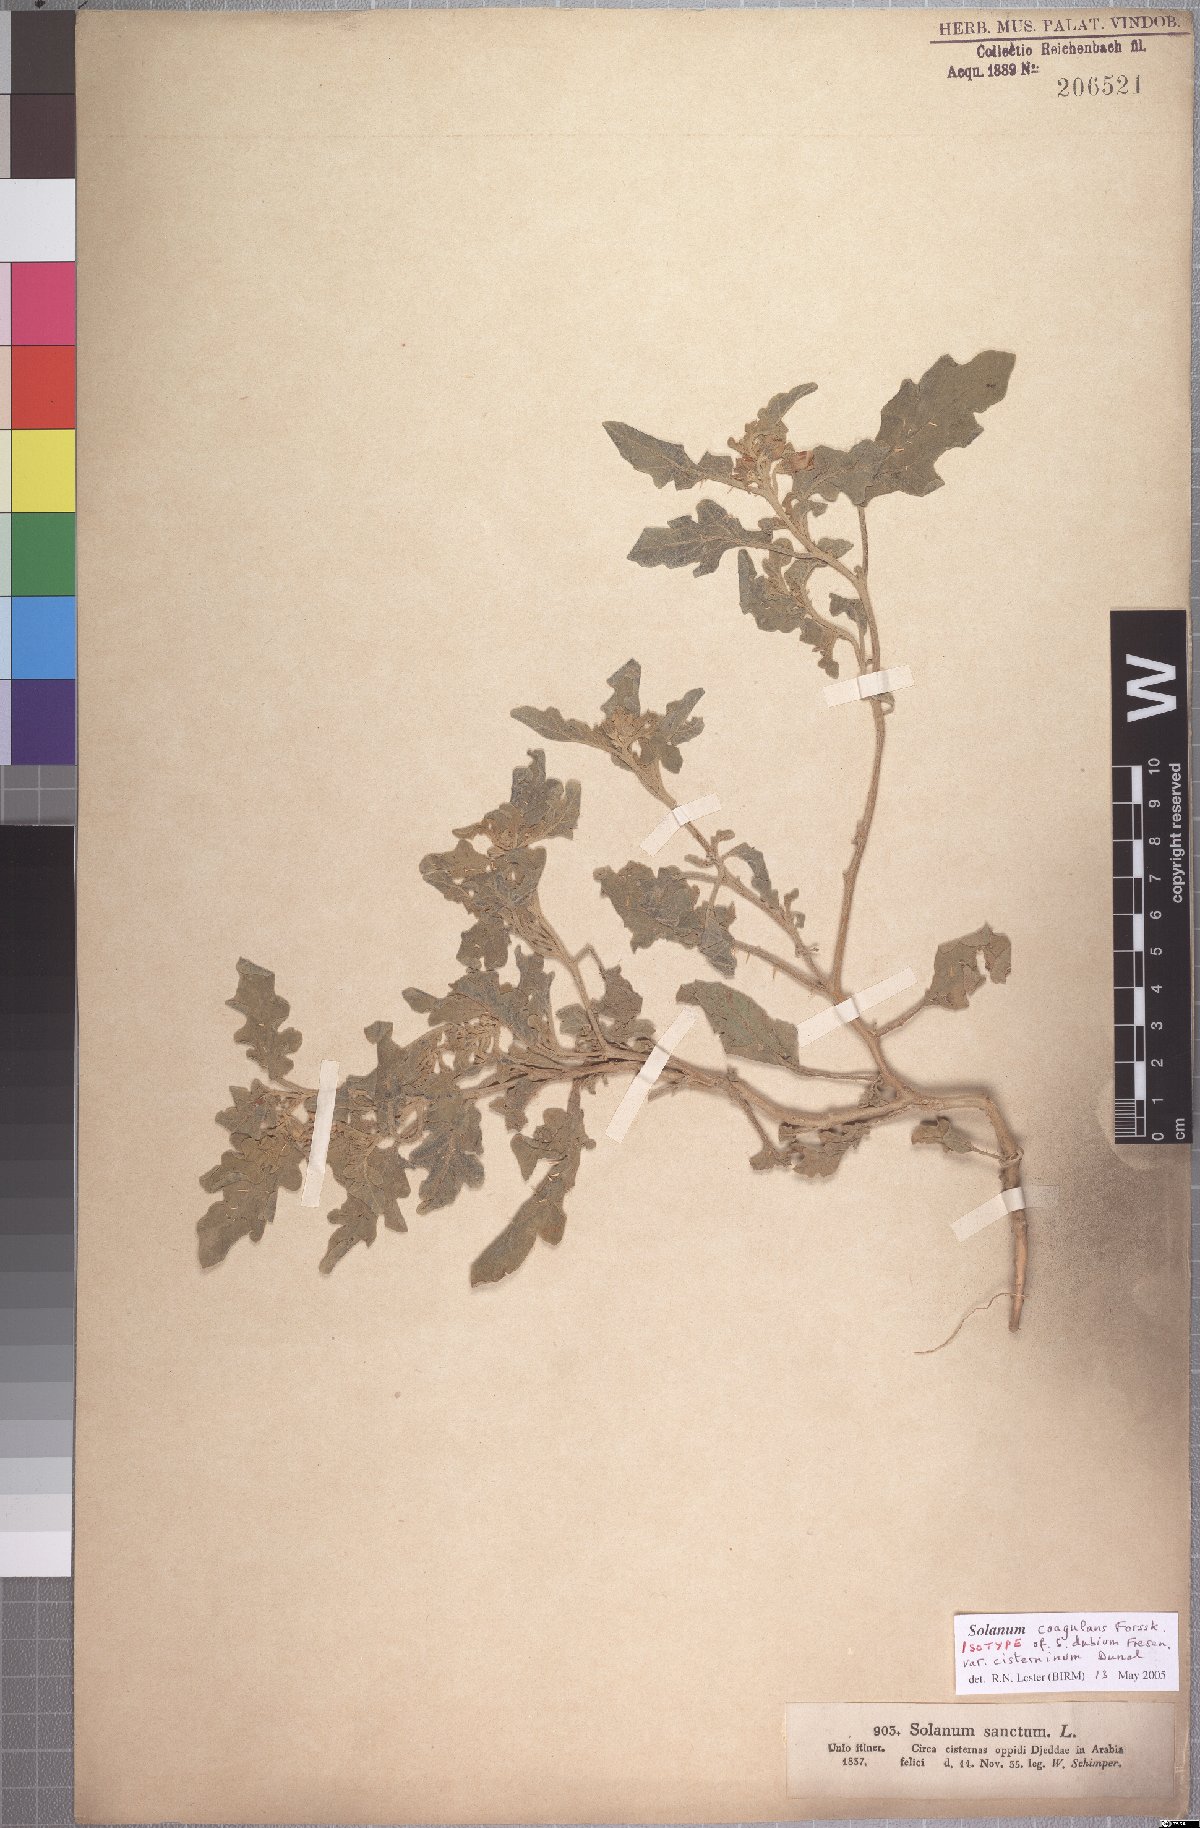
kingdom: Plantae
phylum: Tracheophyta
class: Magnoliopsida
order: Solanales
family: Solanaceae
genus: Solanum
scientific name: Solanum coagulans
